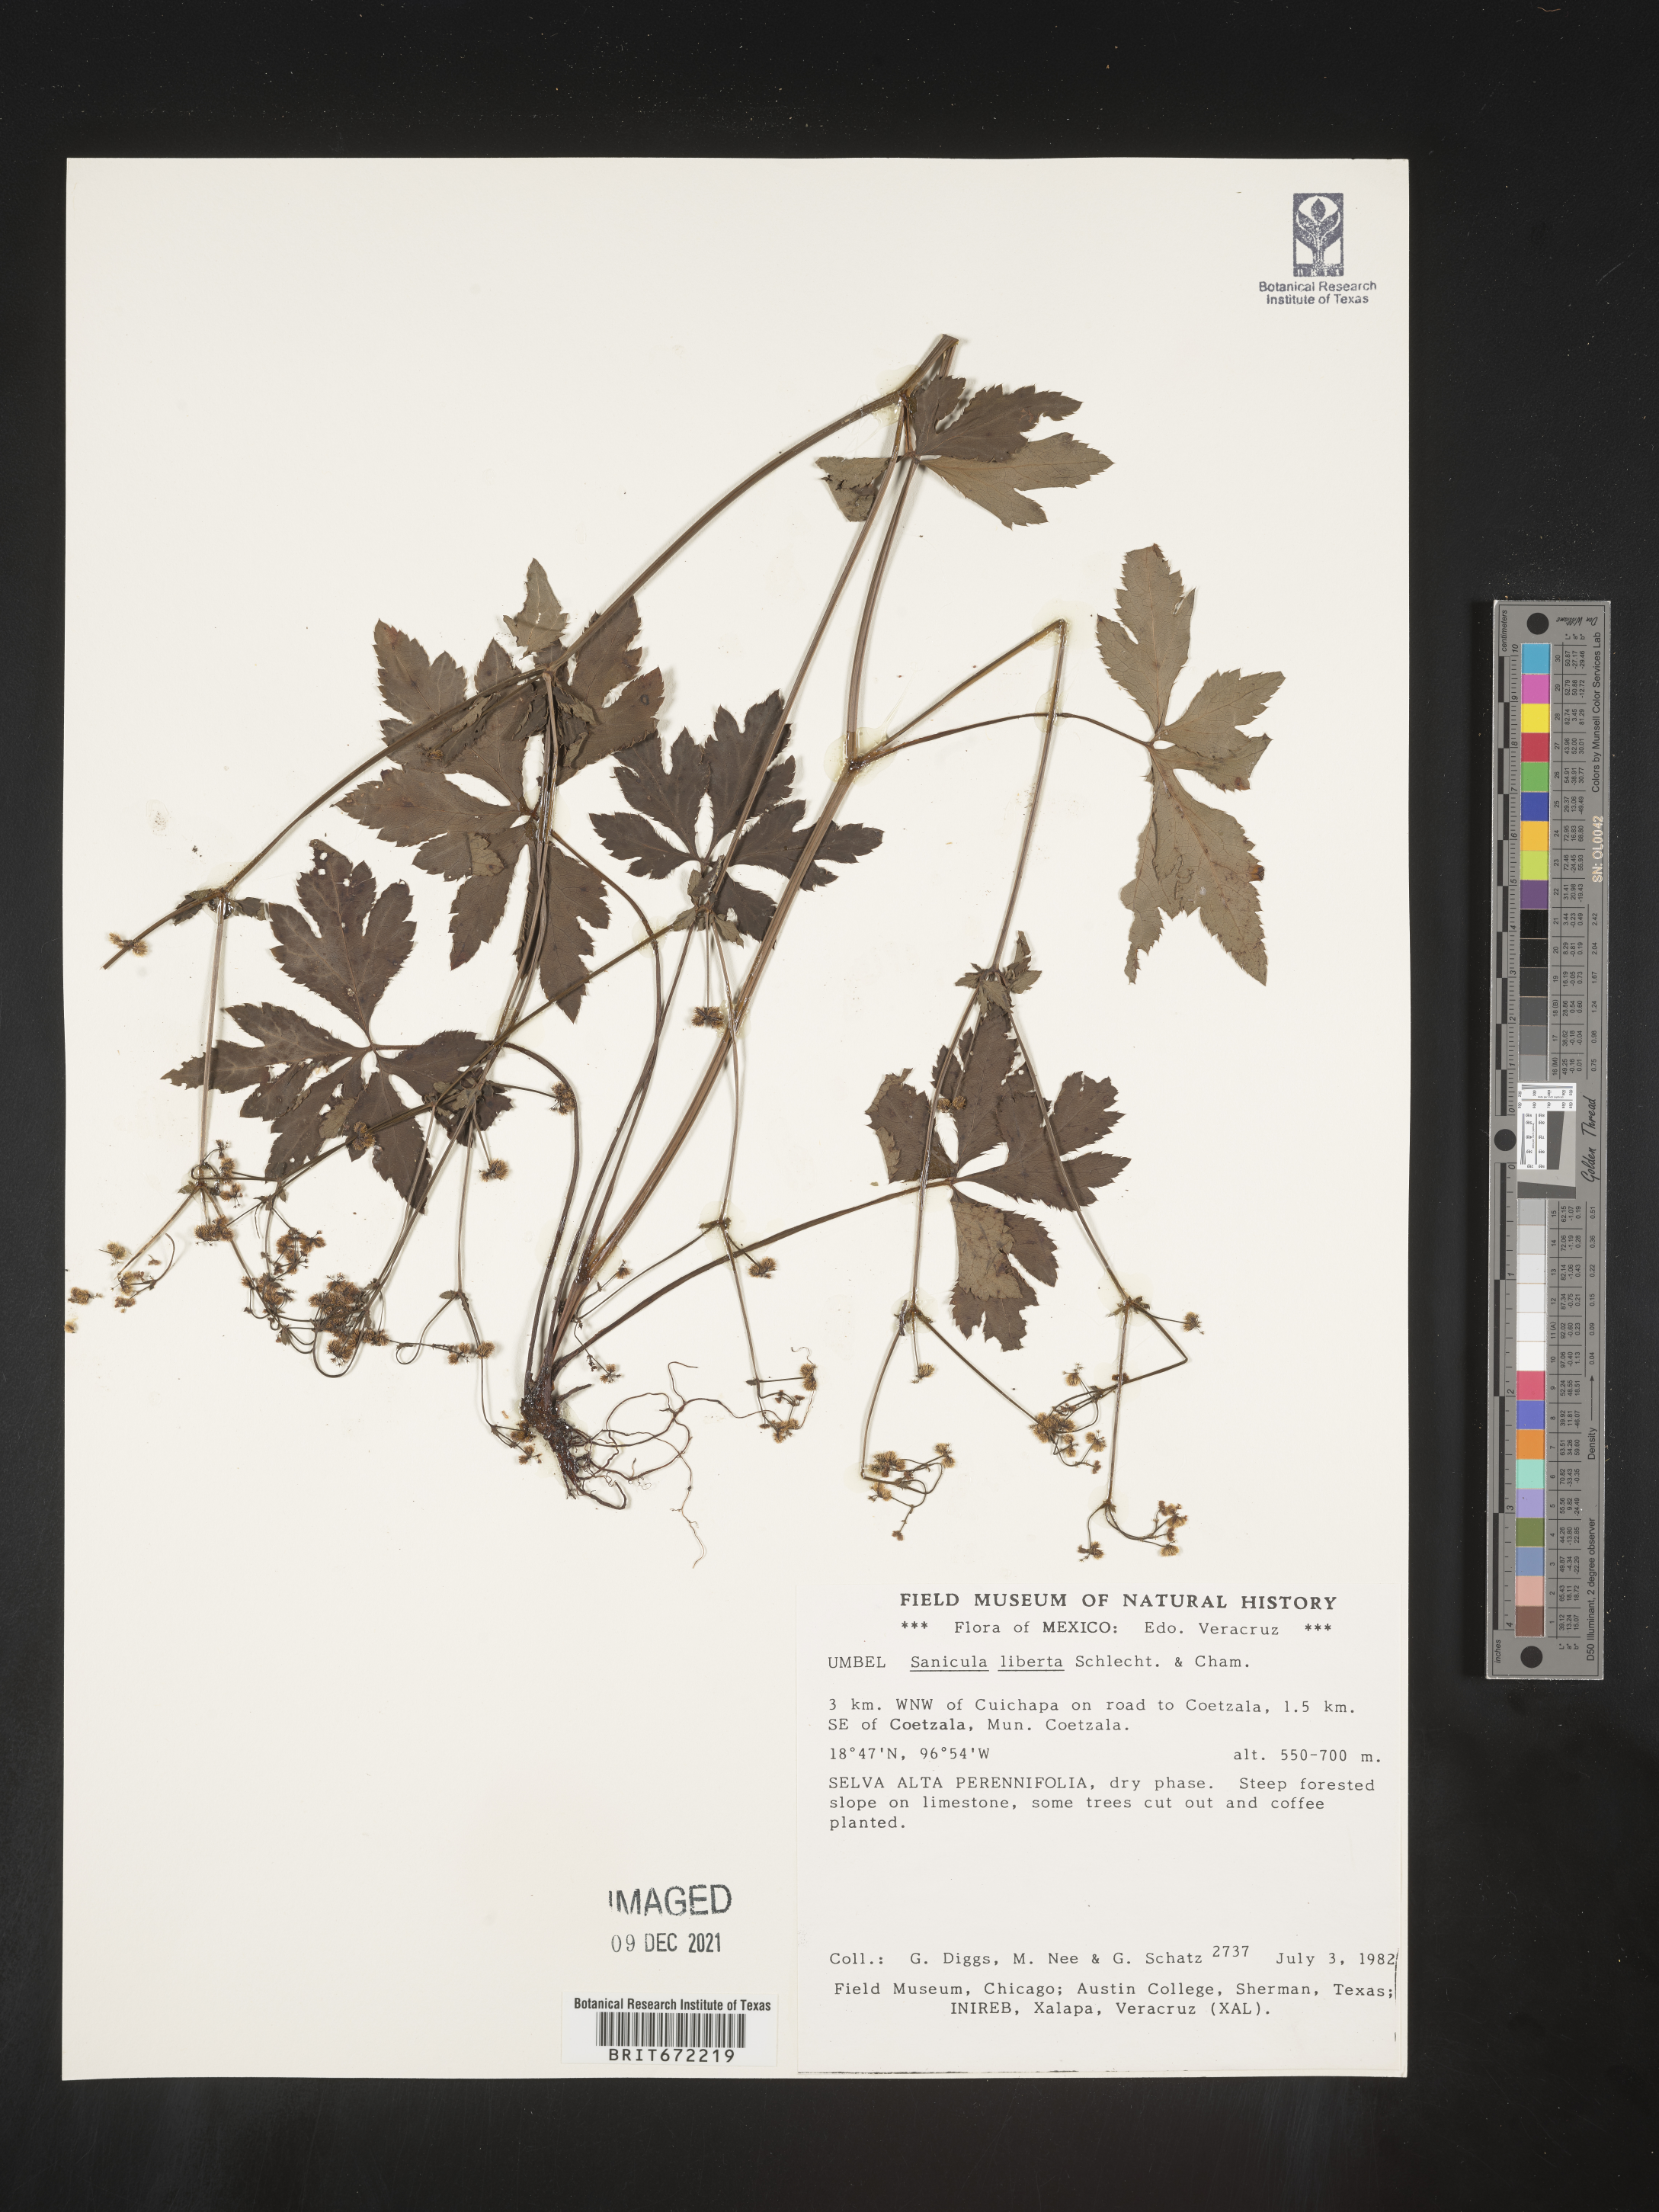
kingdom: Plantae
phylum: Tracheophyta
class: Magnoliopsida
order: Apiales
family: Apiaceae
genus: Sanicula
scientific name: Sanicula
